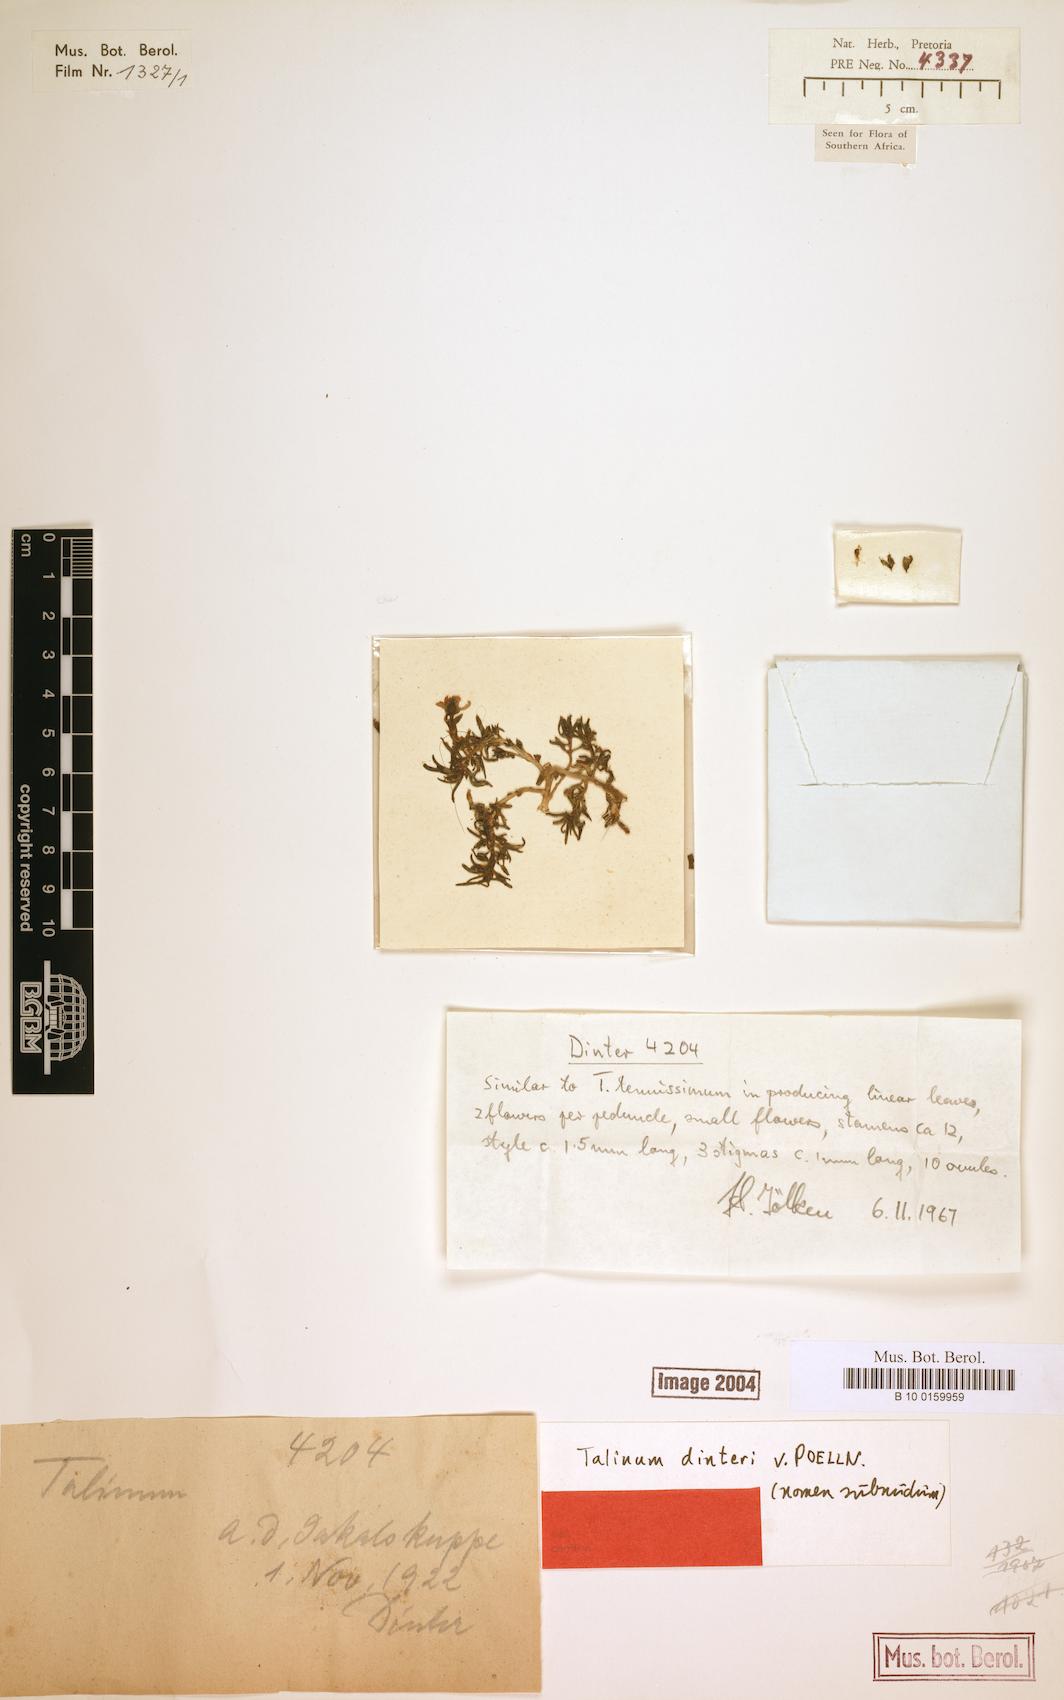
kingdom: Plantae
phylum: Tracheophyta
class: Magnoliopsida
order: Caryophyllales
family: Talinaceae
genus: Talinum
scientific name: Talinum tenuissimum
